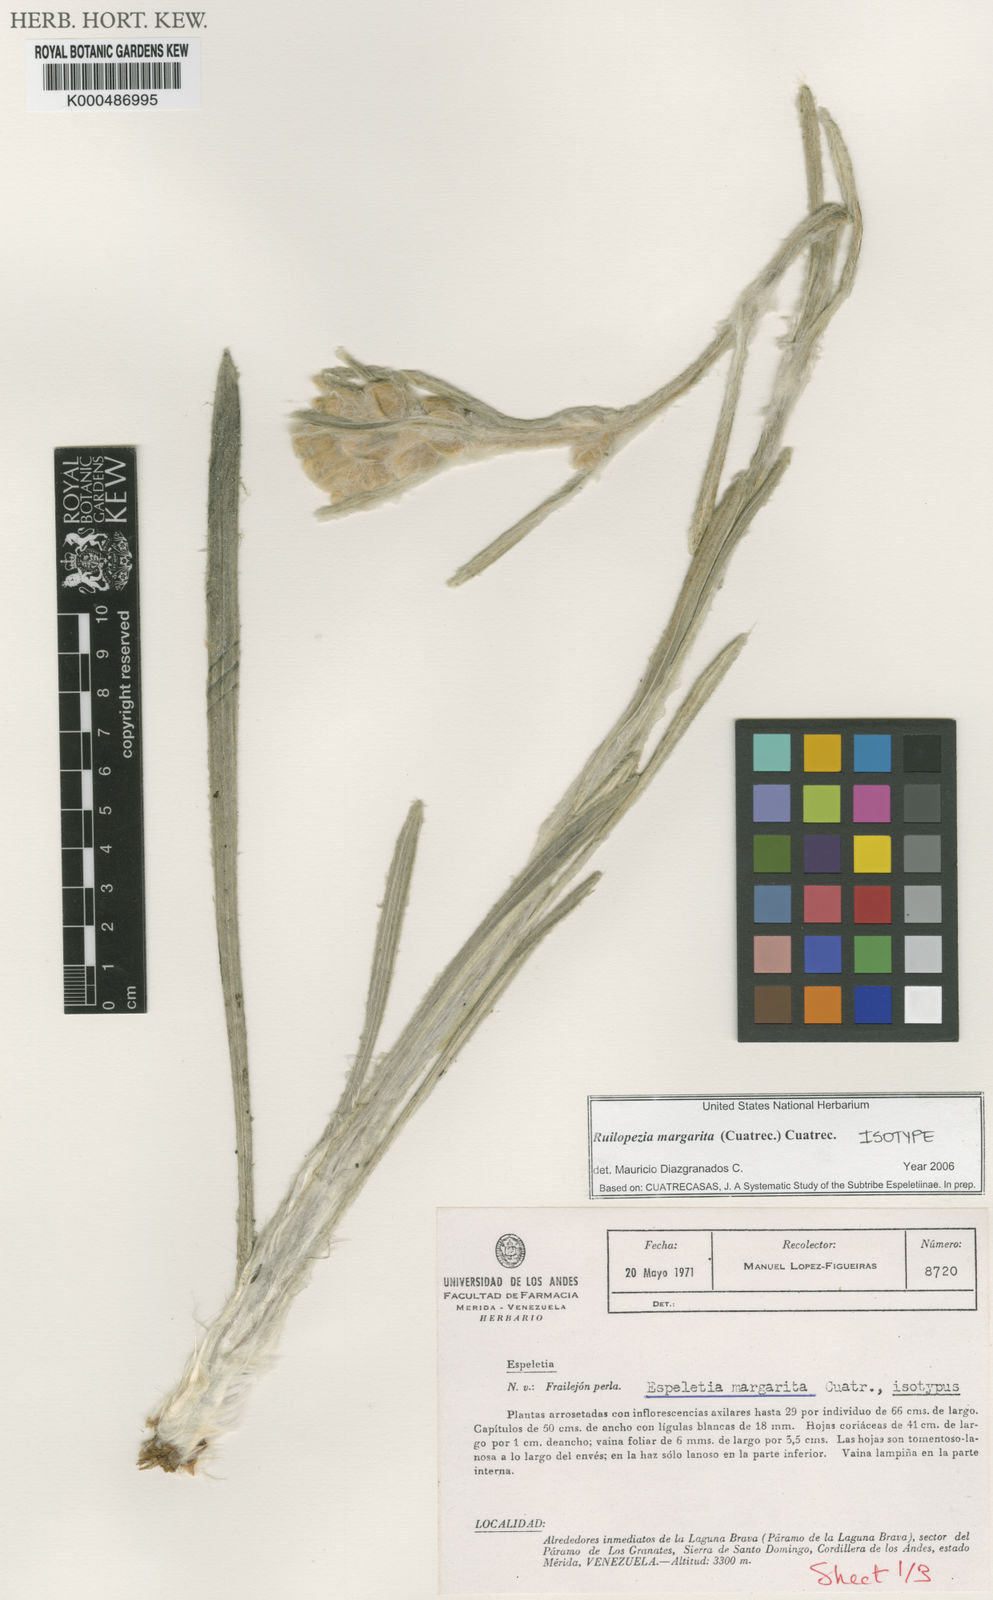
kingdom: Plantae
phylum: Tracheophyta
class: Magnoliopsida
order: Asterales
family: Asteraceae
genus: Espeletia
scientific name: Espeletia margarita
